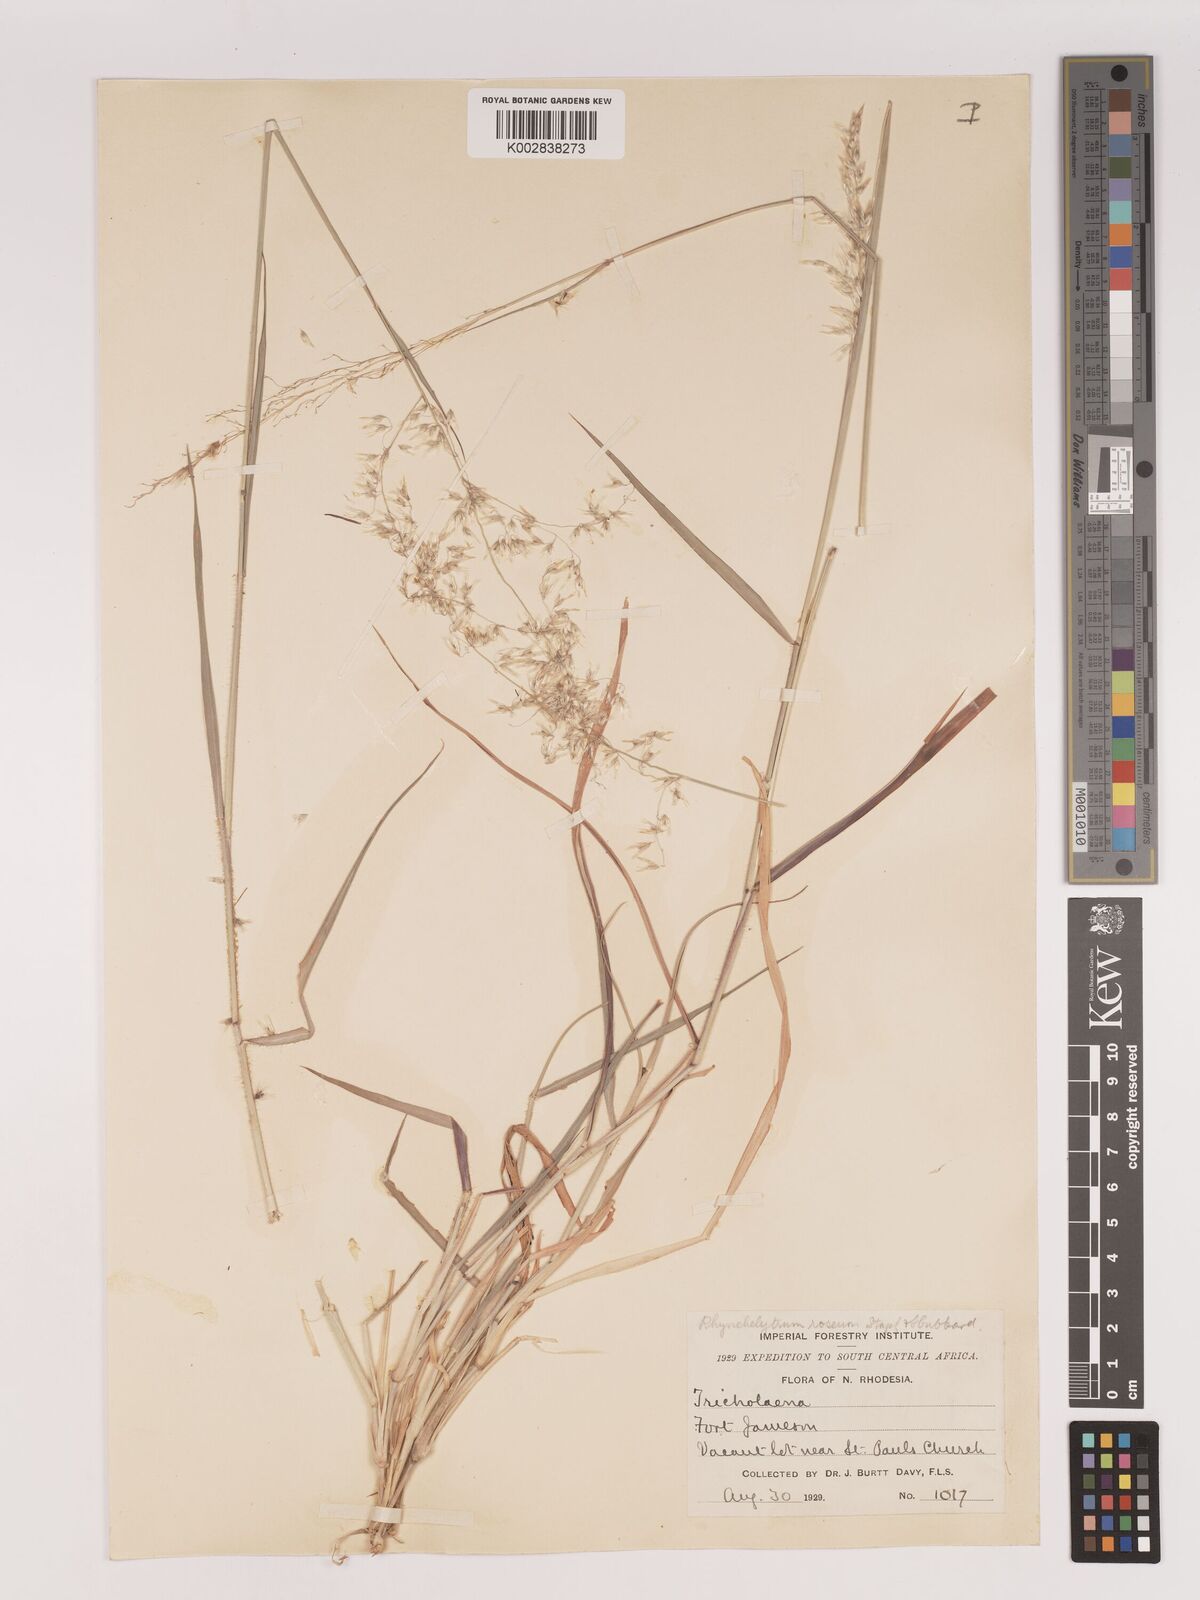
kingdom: Plantae
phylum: Tracheophyta
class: Liliopsida
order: Poales
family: Poaceae
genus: Melinis
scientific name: Melinis repens
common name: Rose natal grass
